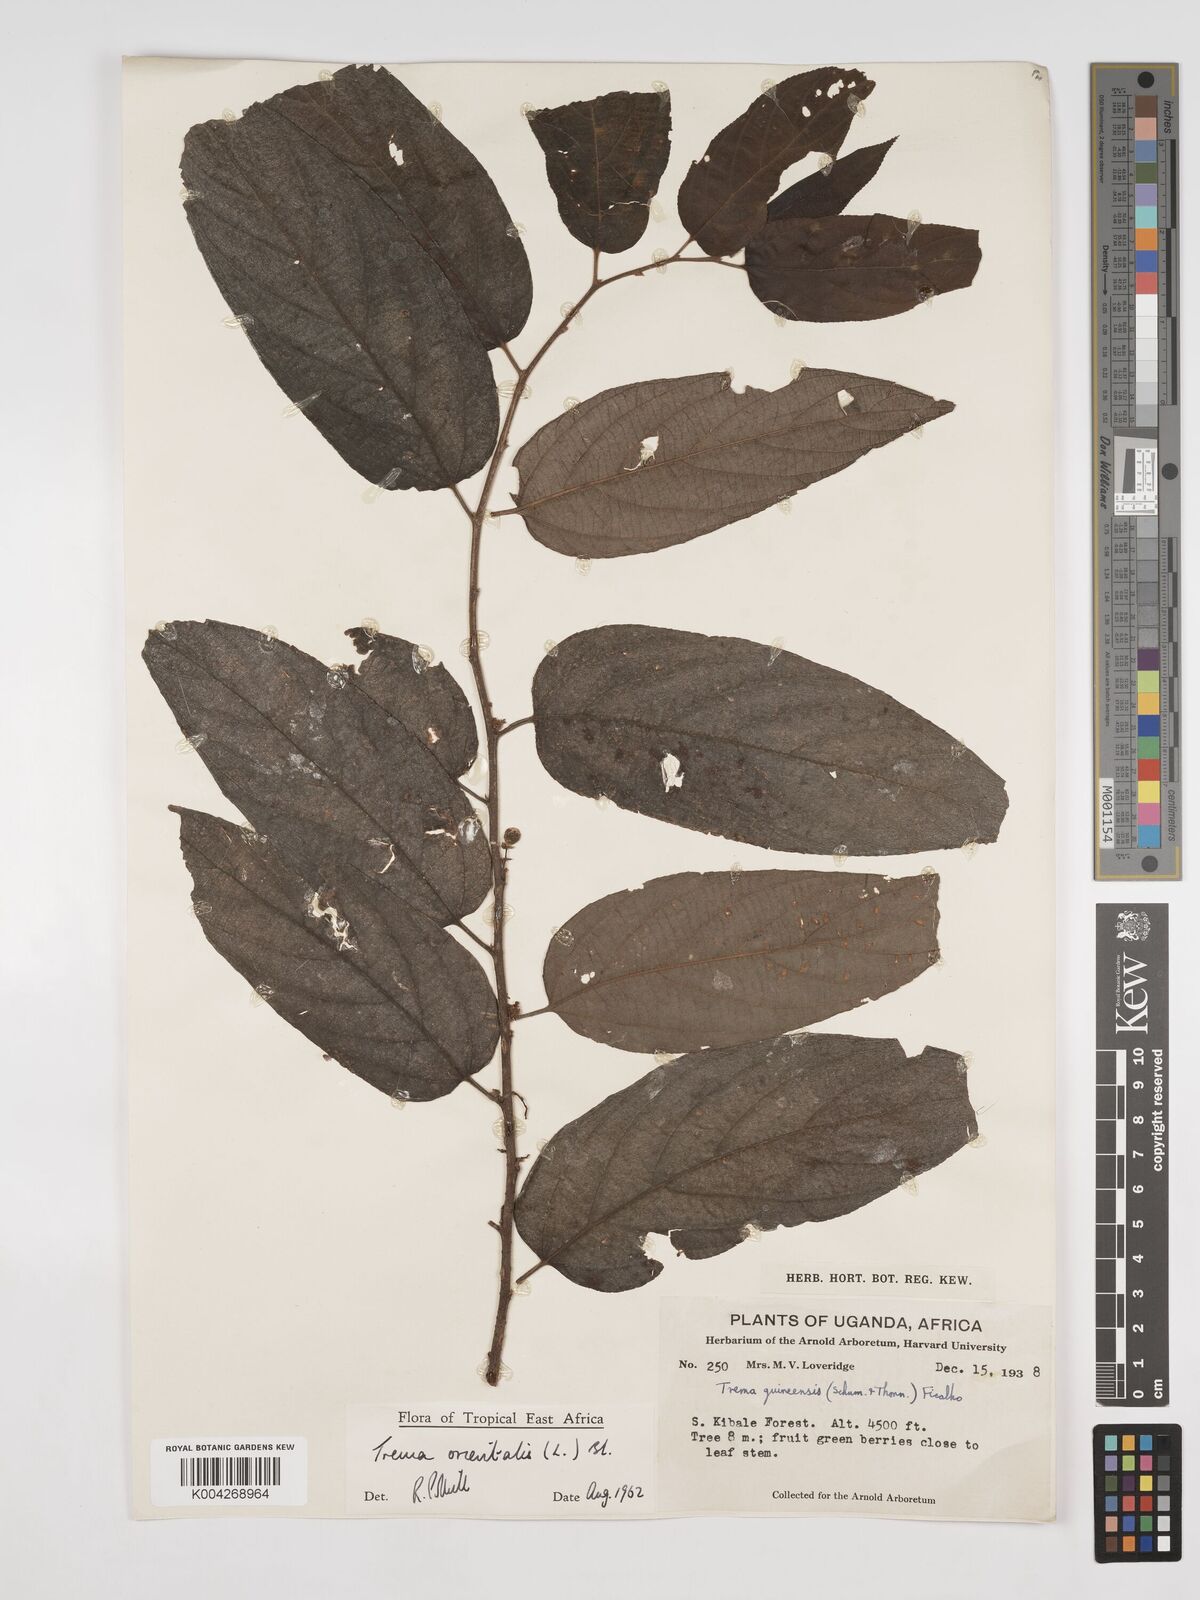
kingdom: Plantae
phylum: Tracheophyta
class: Magnoliopsida
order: Rosales
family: Cannabaceae
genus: Trema
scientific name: Trema orientale
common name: Indian charcoal tree
